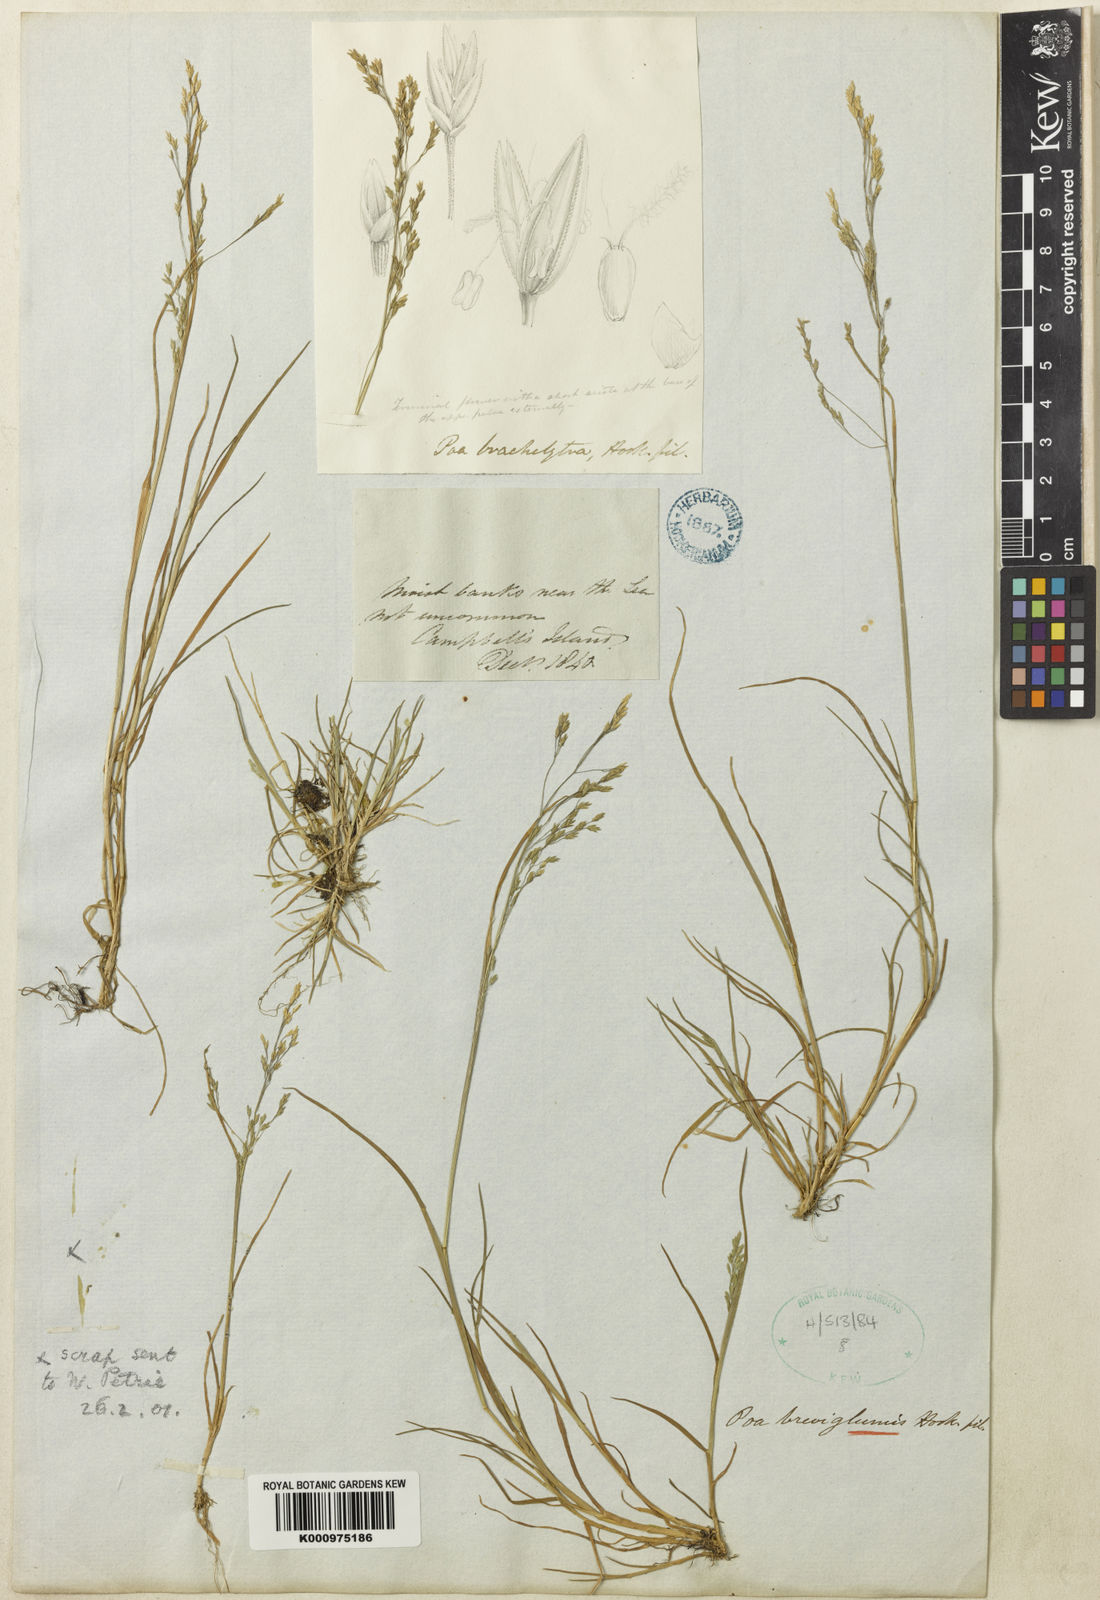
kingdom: Plantae
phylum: Tracheophyta
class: Liliopsida
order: Poales
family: Poaceae
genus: Poa
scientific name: Poa breviglumis
